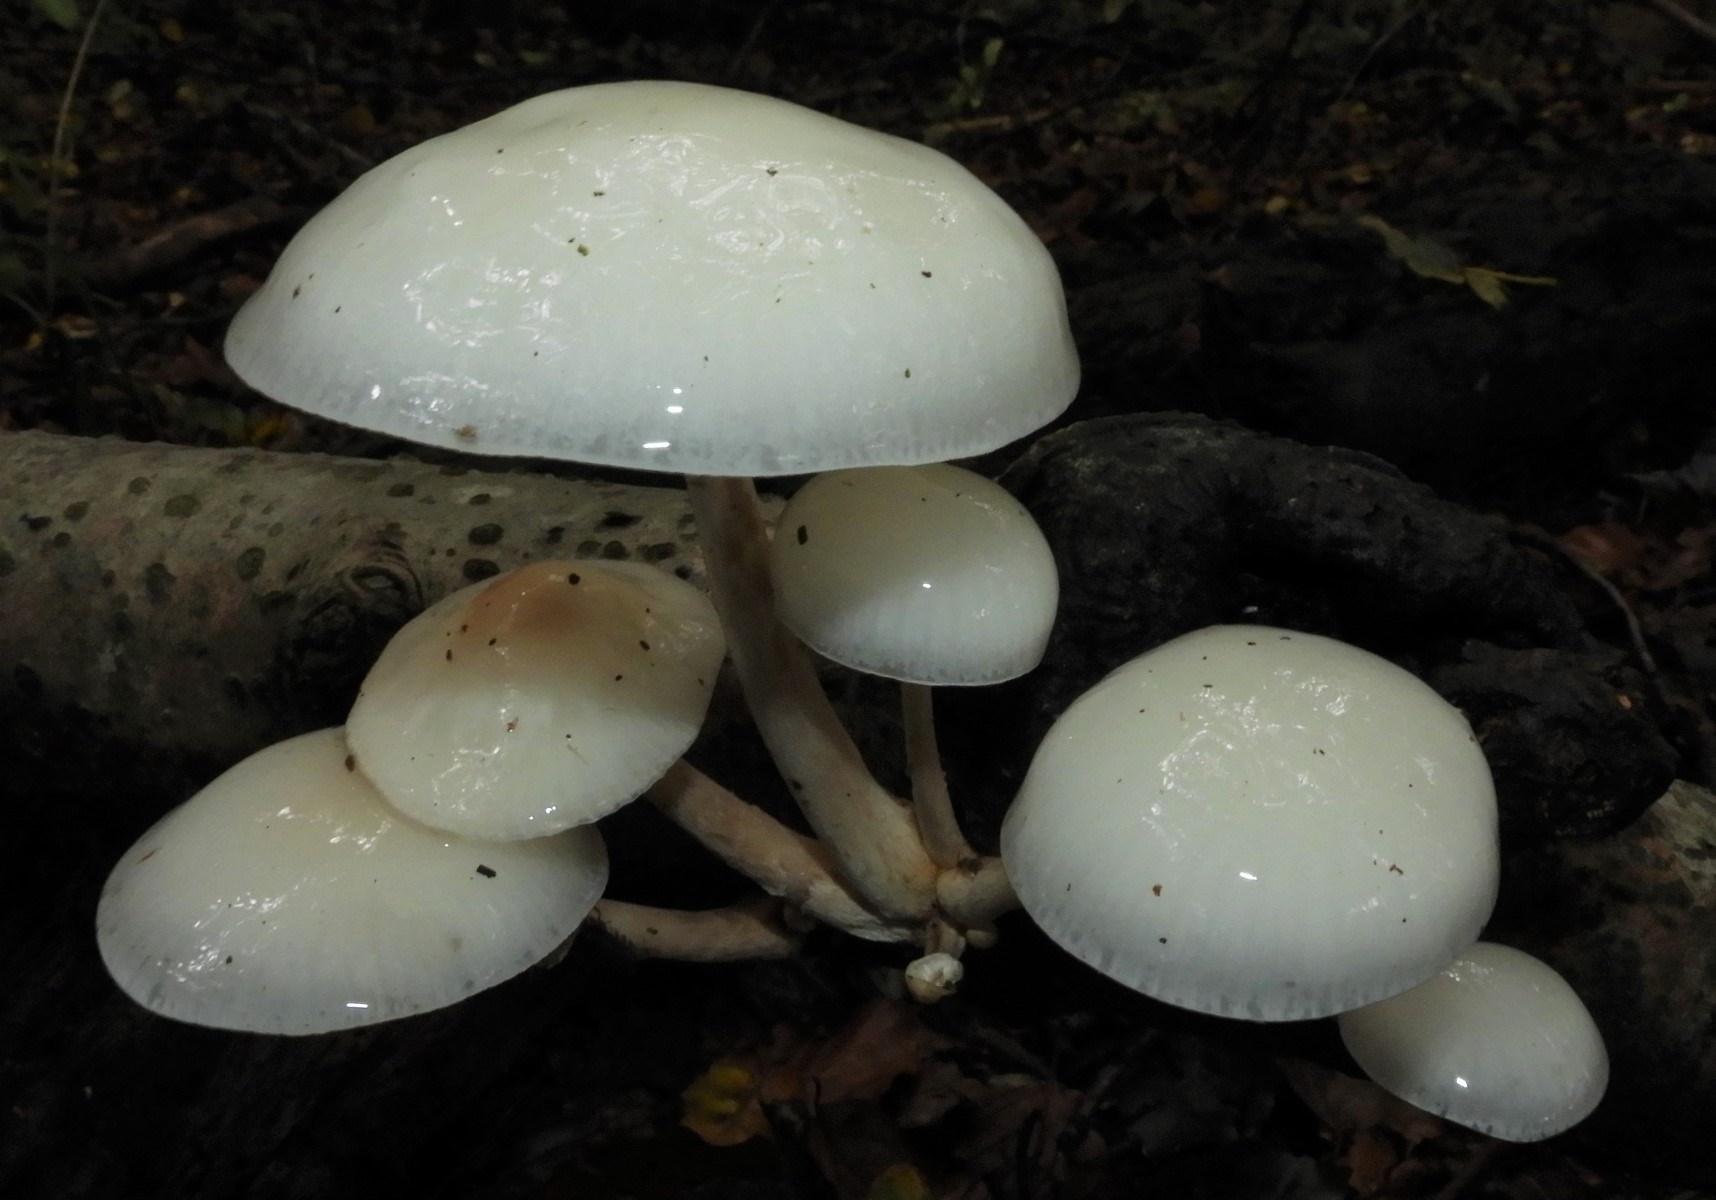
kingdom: Fungi
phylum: Basidiomycota
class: Agaricomycetes
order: Agaricales
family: Physalacriaceae
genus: Mucidula
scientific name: Mucidula mucida
